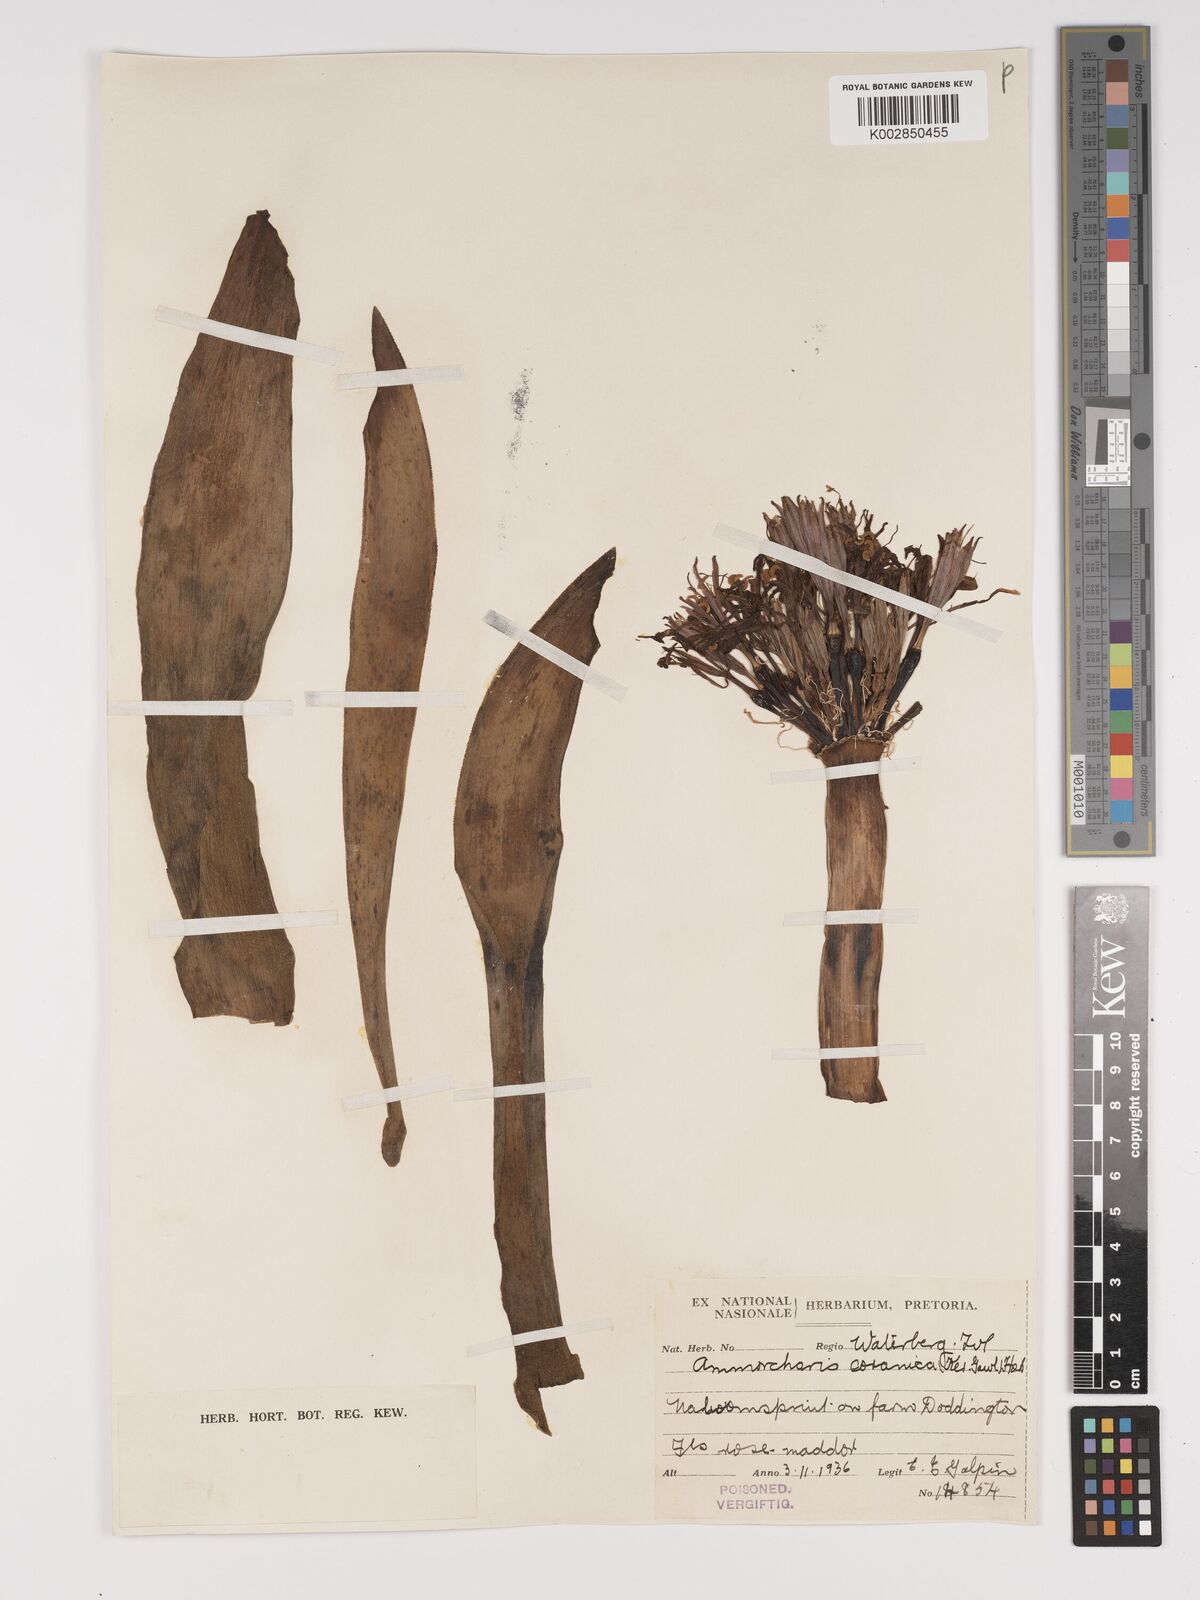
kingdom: Plantae
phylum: Tracheophyta
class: Liliopsida
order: Asparagales
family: Amaryllidaceae
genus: Ammocharis
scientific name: Ammocharis coranica
